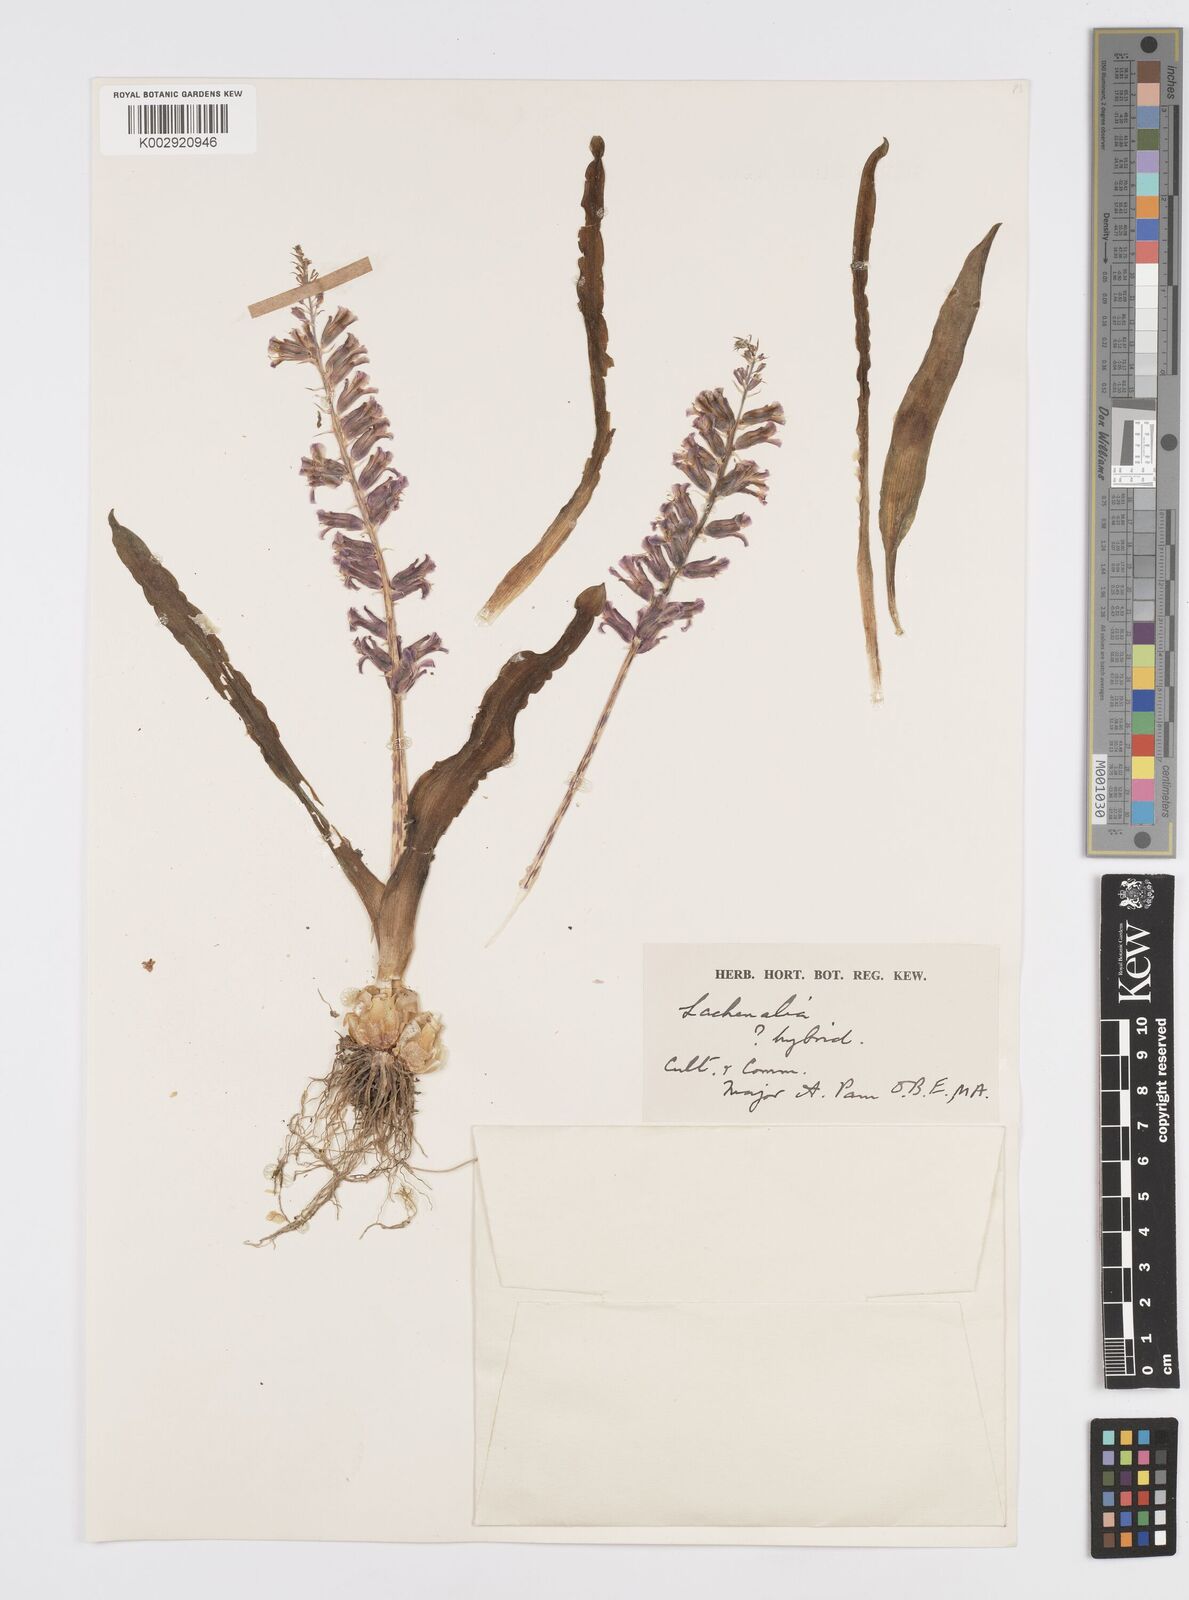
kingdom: Plantae
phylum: Tracheophyta
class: Liliopsida
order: Asparagales
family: Asparagaceae
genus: Lachenalia
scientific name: Lachenalia
